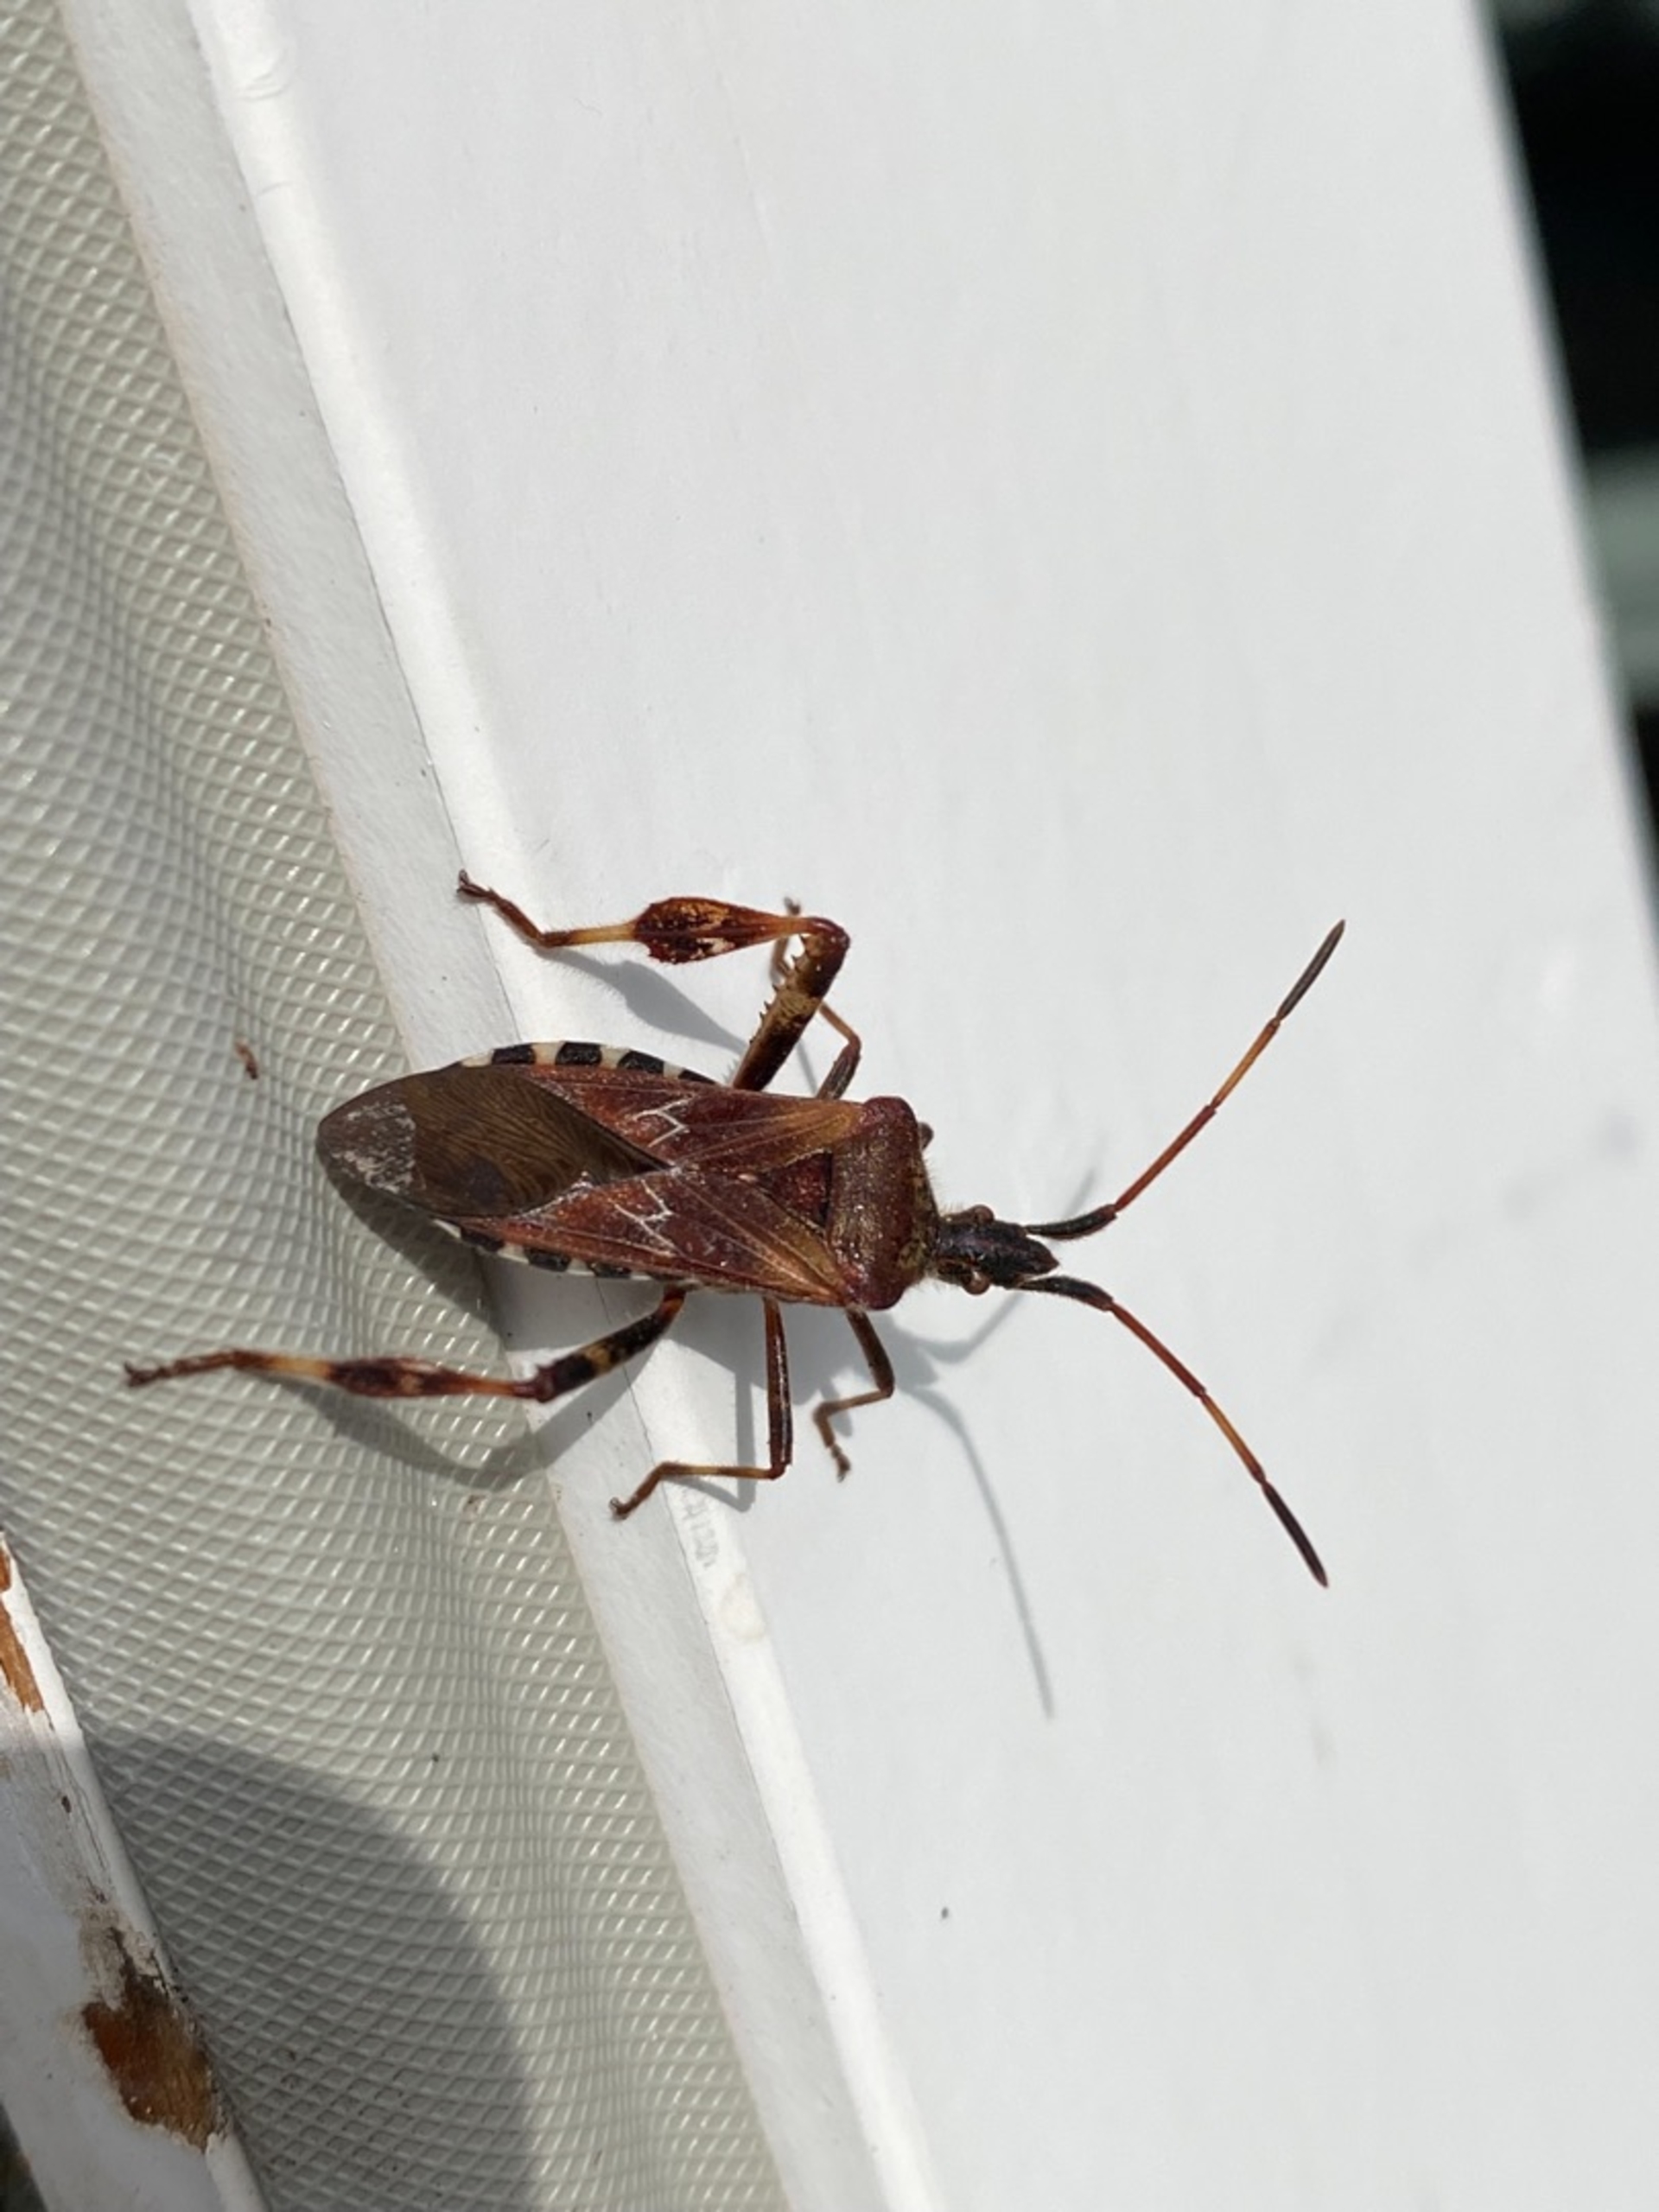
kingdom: Animalia
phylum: Arthropoda
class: Insecta
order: Hemiptera
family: Coreidae
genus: Leptoglossus
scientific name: Leptoglossus occidentalis
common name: Amerikansk fyrretæge
